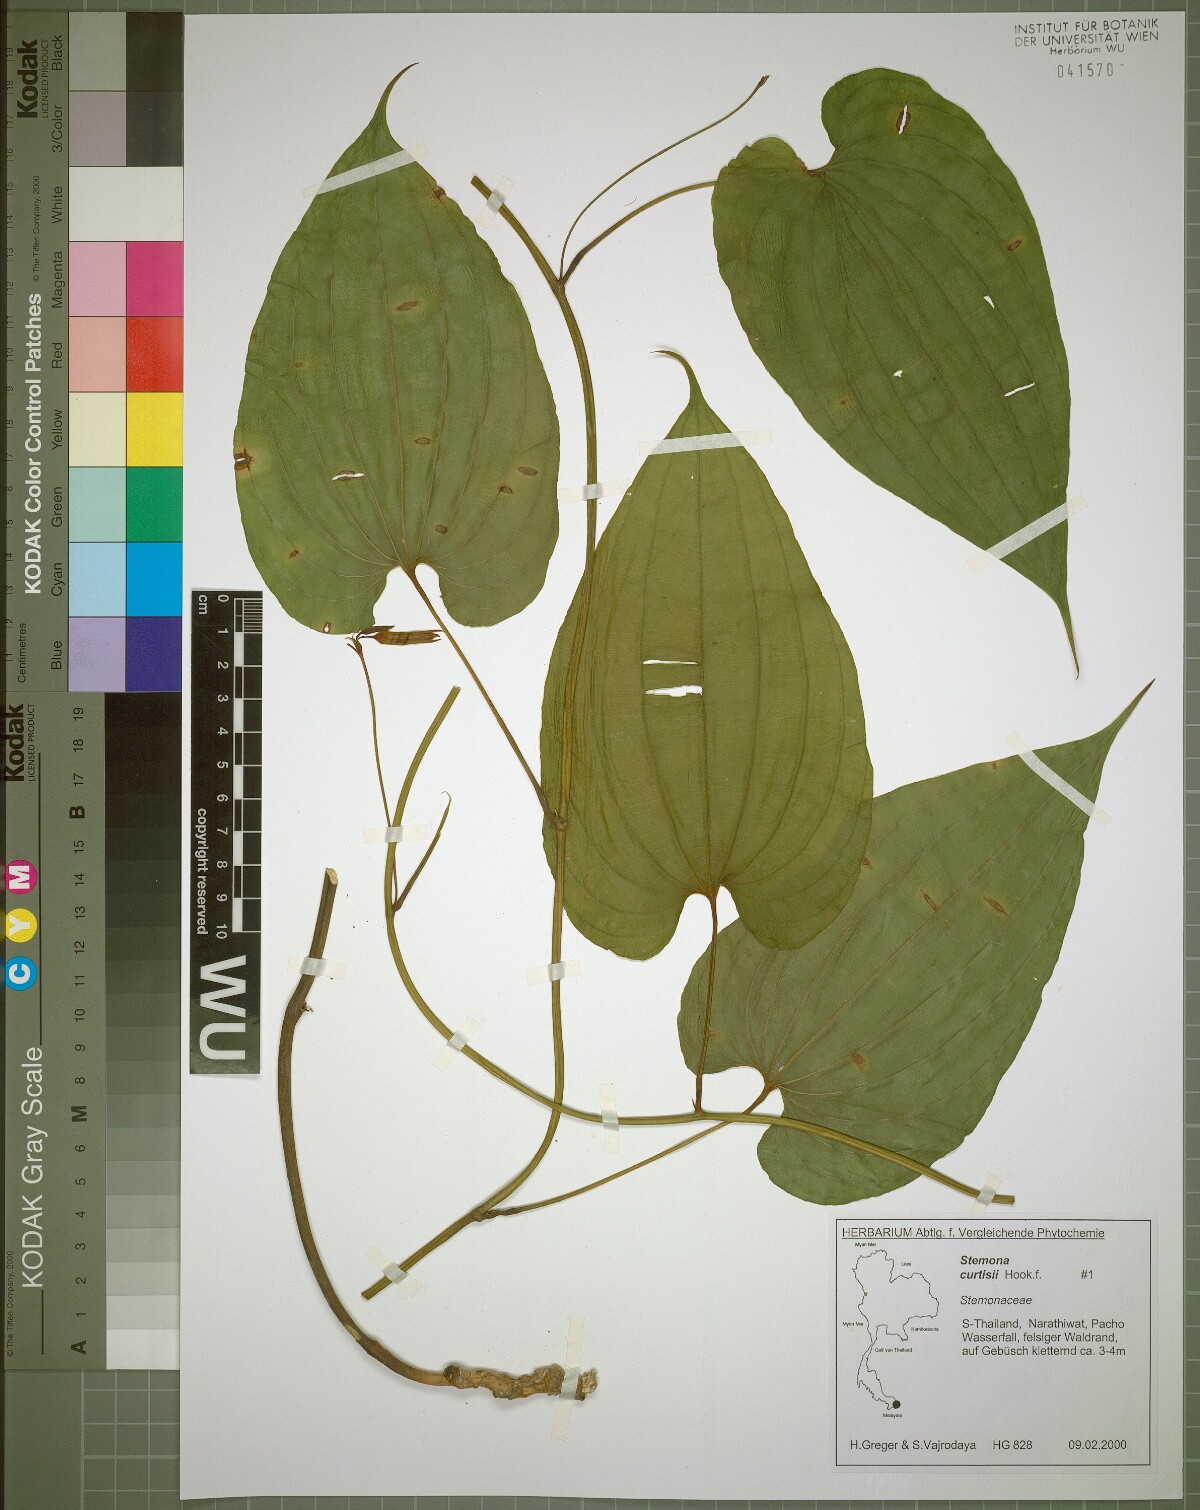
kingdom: Plantae
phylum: Tracheophyta
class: Liliopsida
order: Pandanales
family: Stemonaceae
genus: Stemona
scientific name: Stemona curtisii
